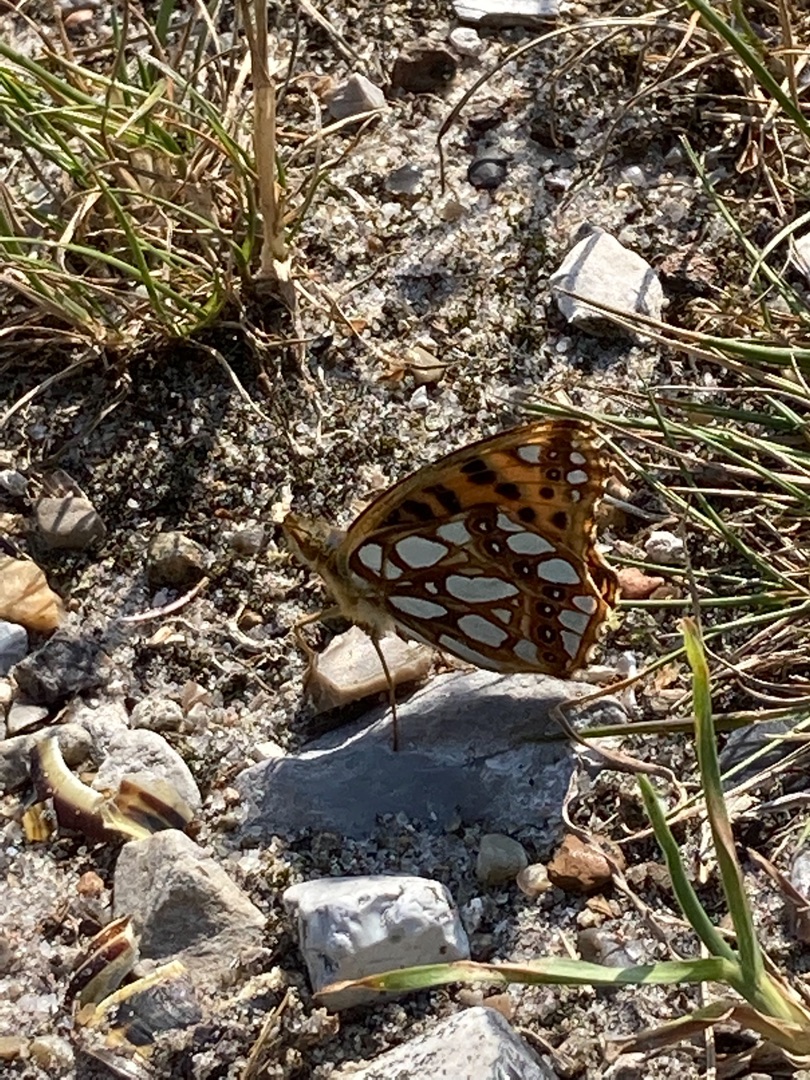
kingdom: Animalia
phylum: Arthropoda
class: Insecta
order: Lepidoptera
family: Nymphalidae
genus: Issoria
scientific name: Issoria lathonia
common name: Storplettet perlemorsommerfugl
